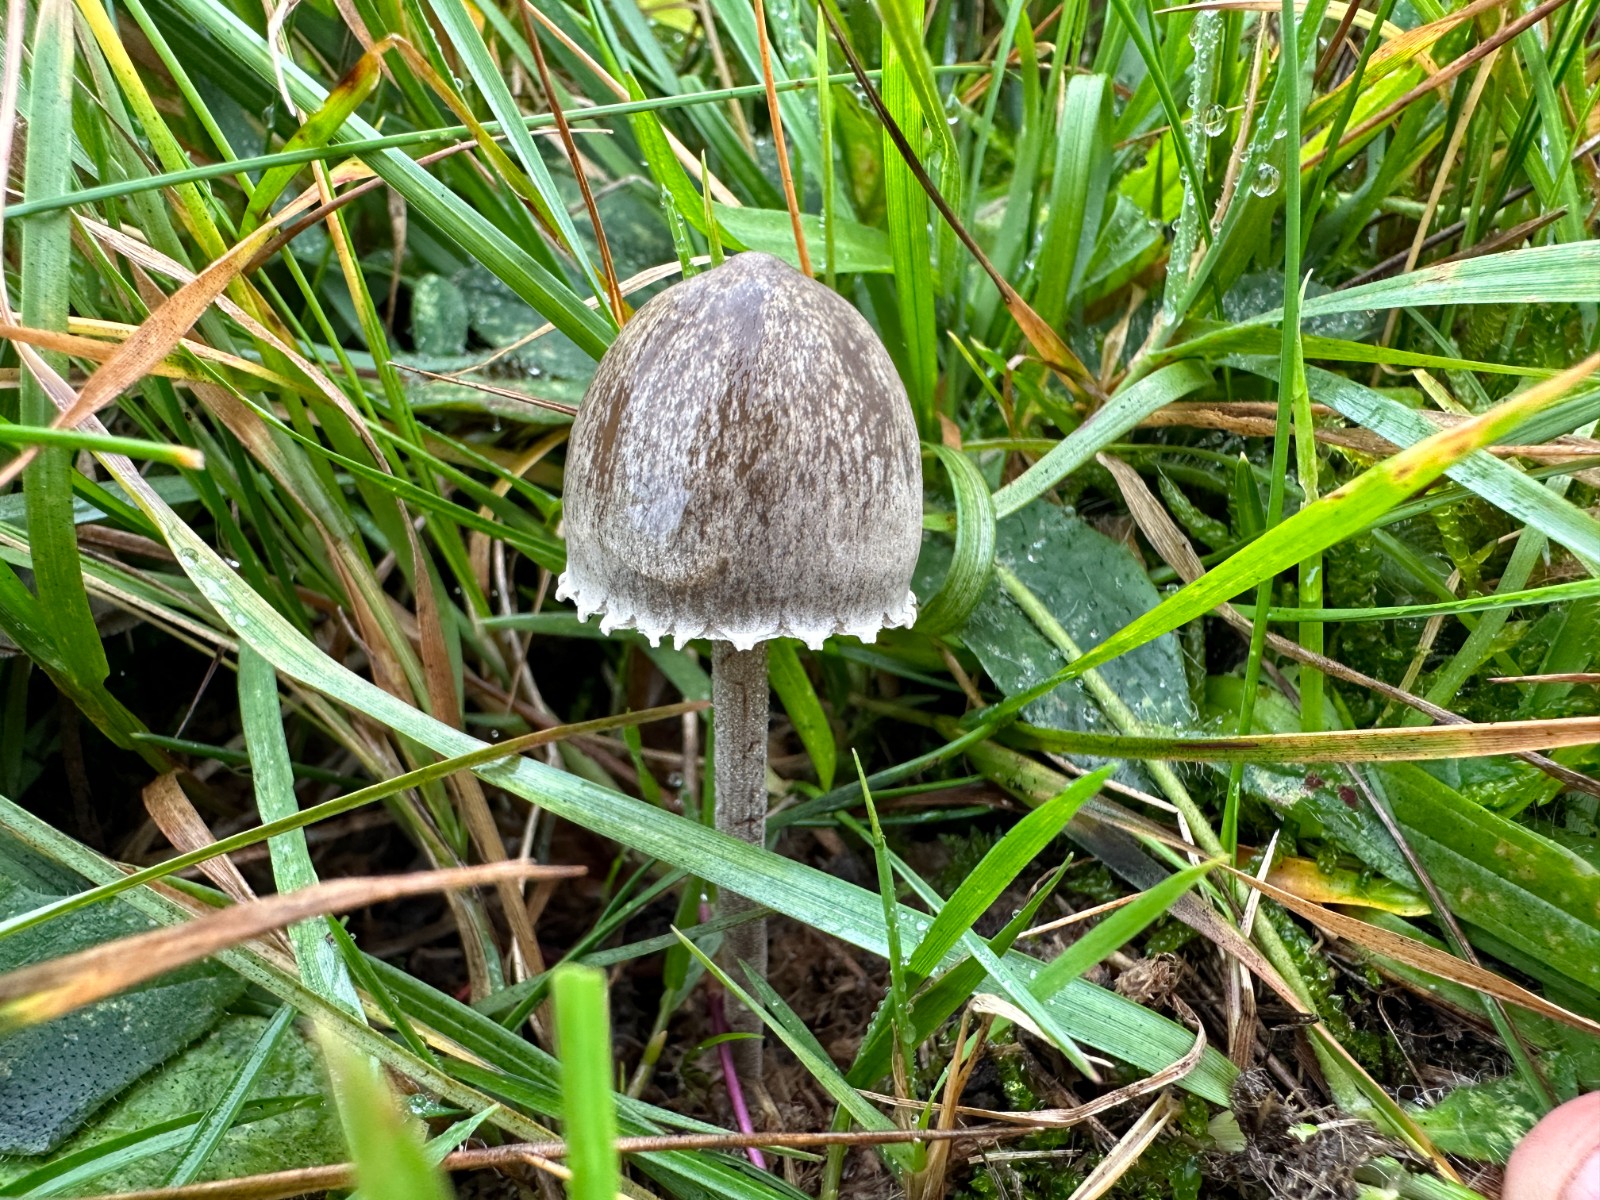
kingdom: Fungi
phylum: Basidiomycota
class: Agaricomycetes
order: Agaricales
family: Bolbitiaceae
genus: Panaeolus
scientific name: Panaeolus papilionaceus
